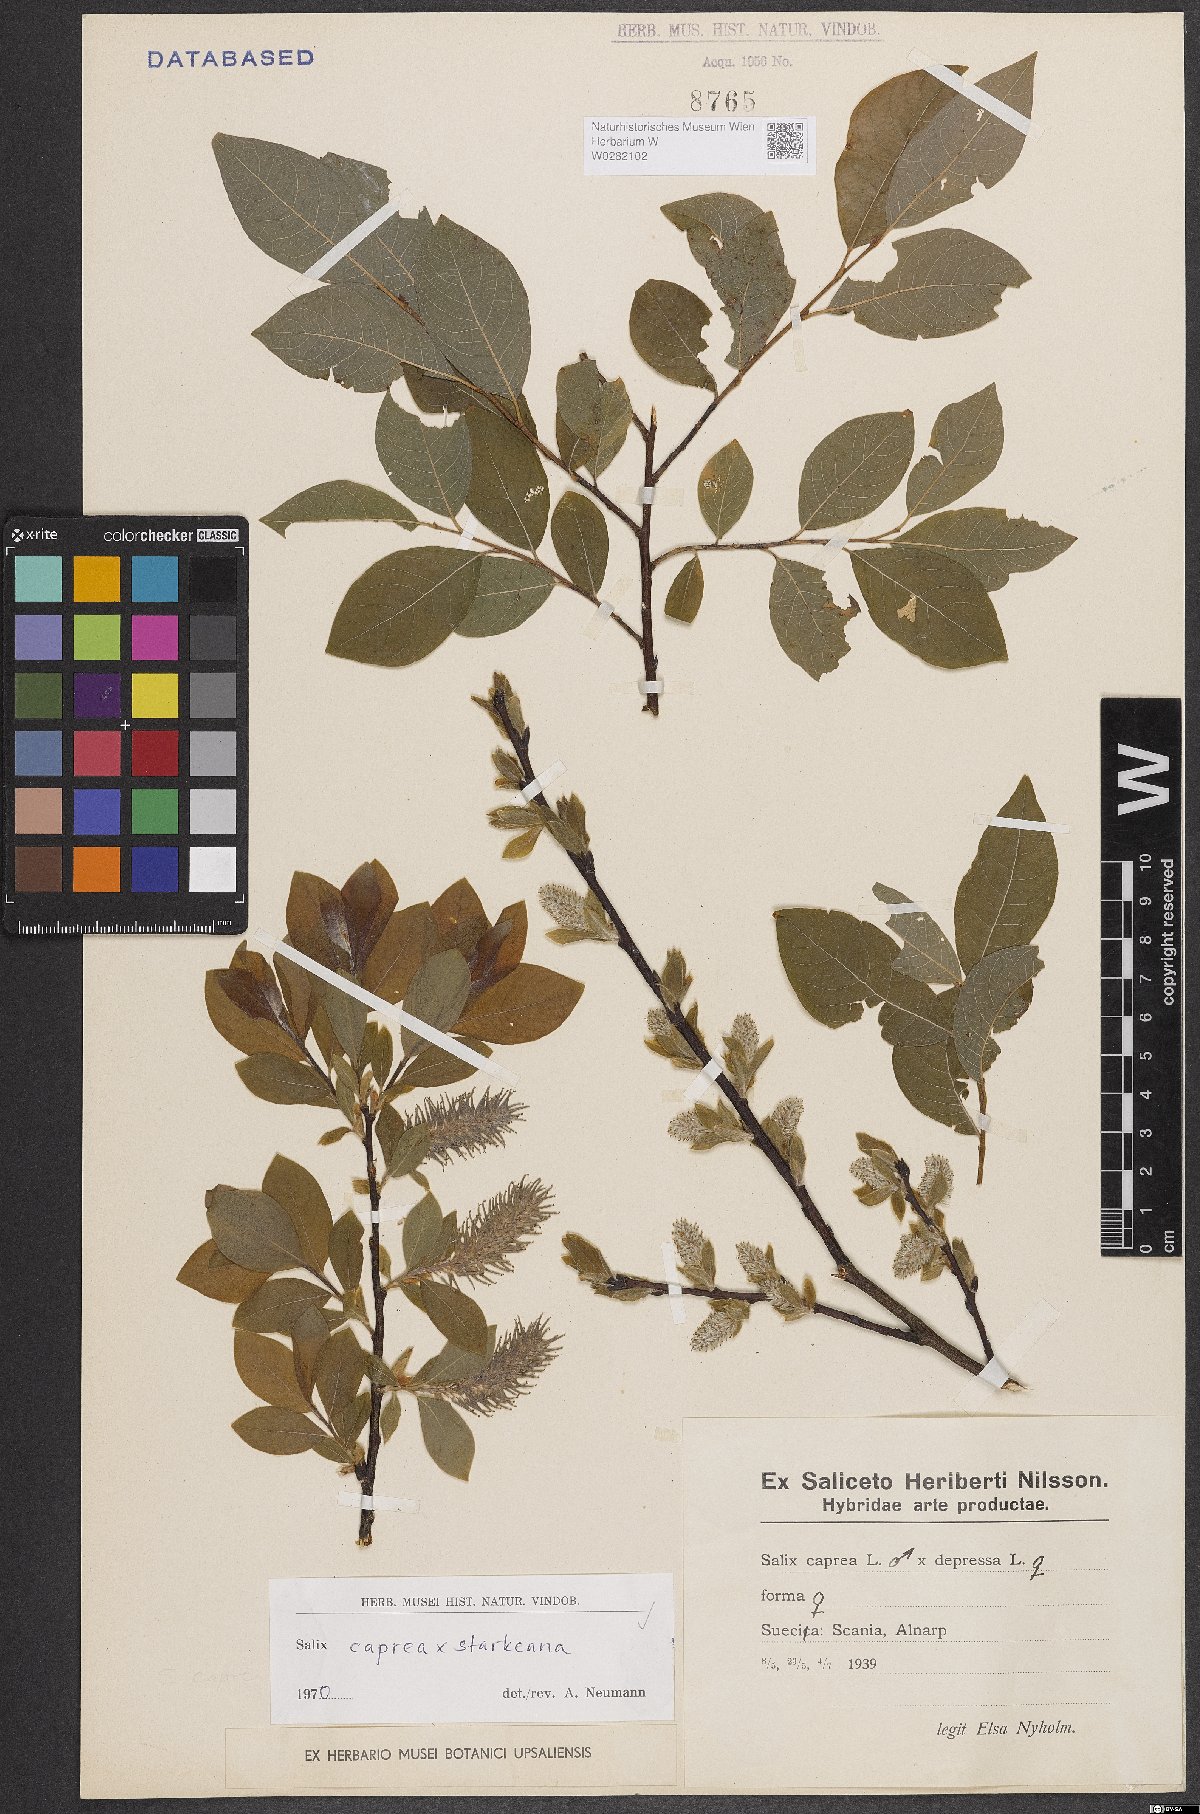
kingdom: Plantae
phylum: Tracheophyta
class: Magnoliopsida
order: Malpighiales
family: Salicaceae
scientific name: Salicaceae
